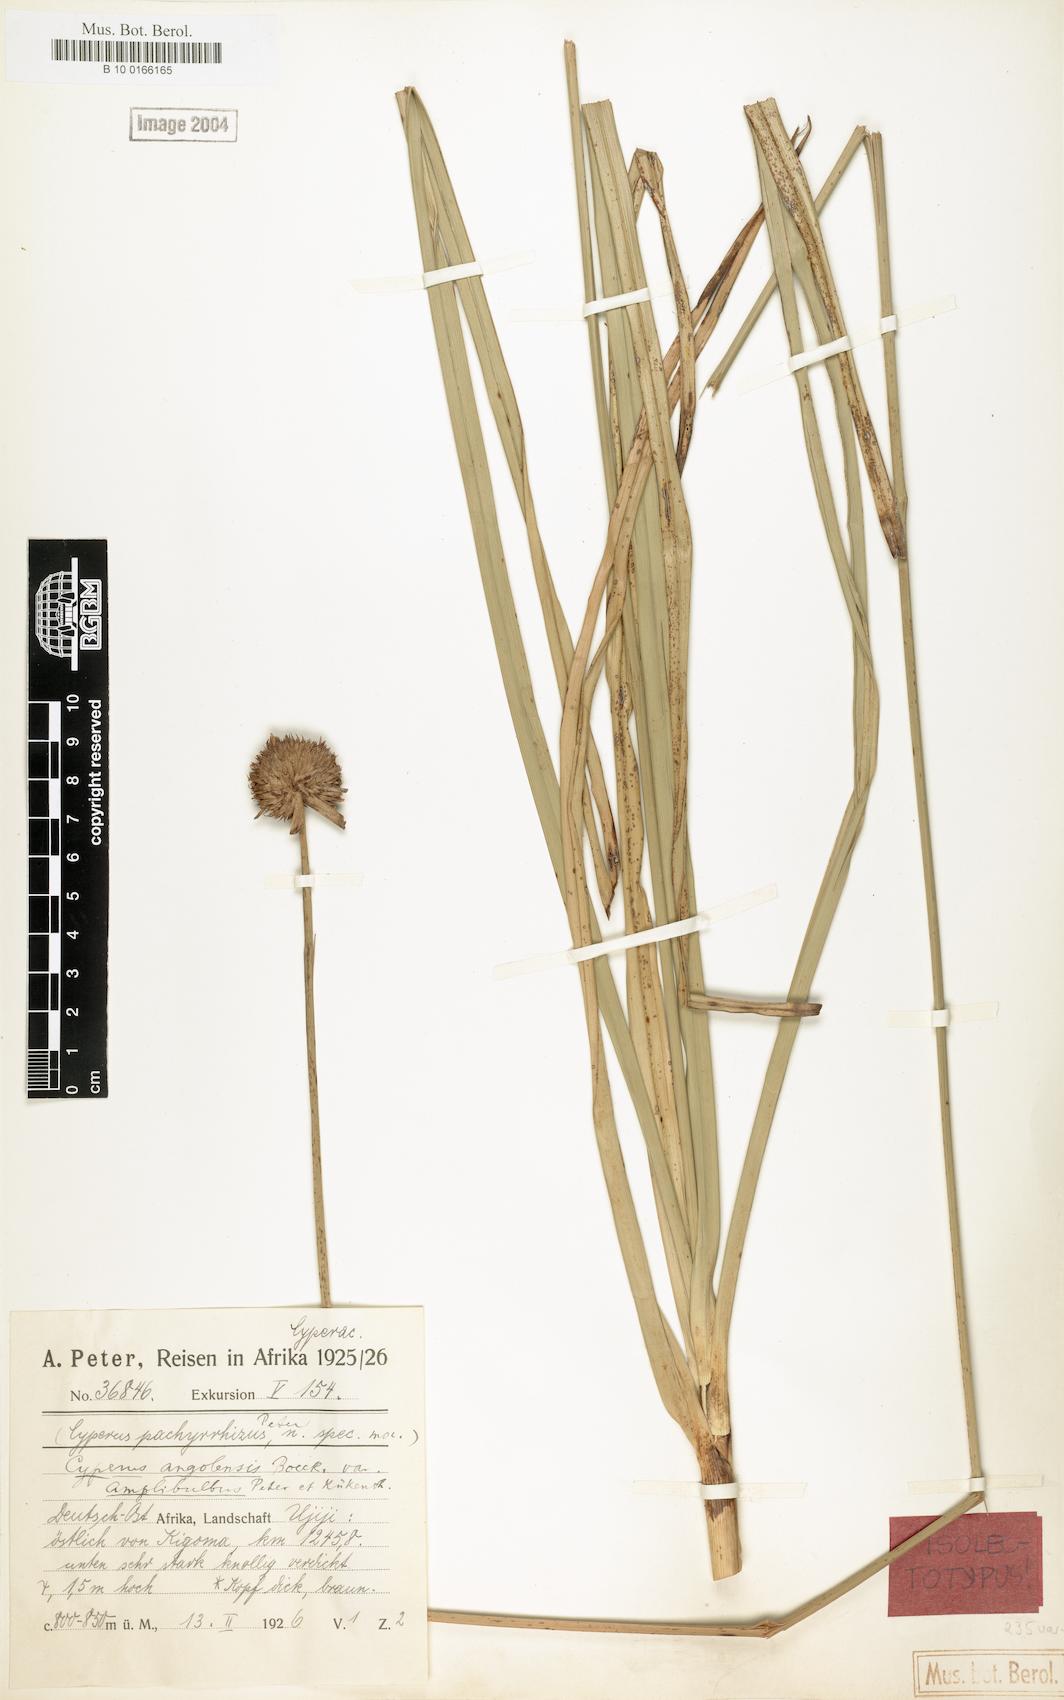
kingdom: Plantae
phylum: Tracheophyta
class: Liliopsida
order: Poales
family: Cyperaceae
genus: Cyperus
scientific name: Cyperus angolensis
